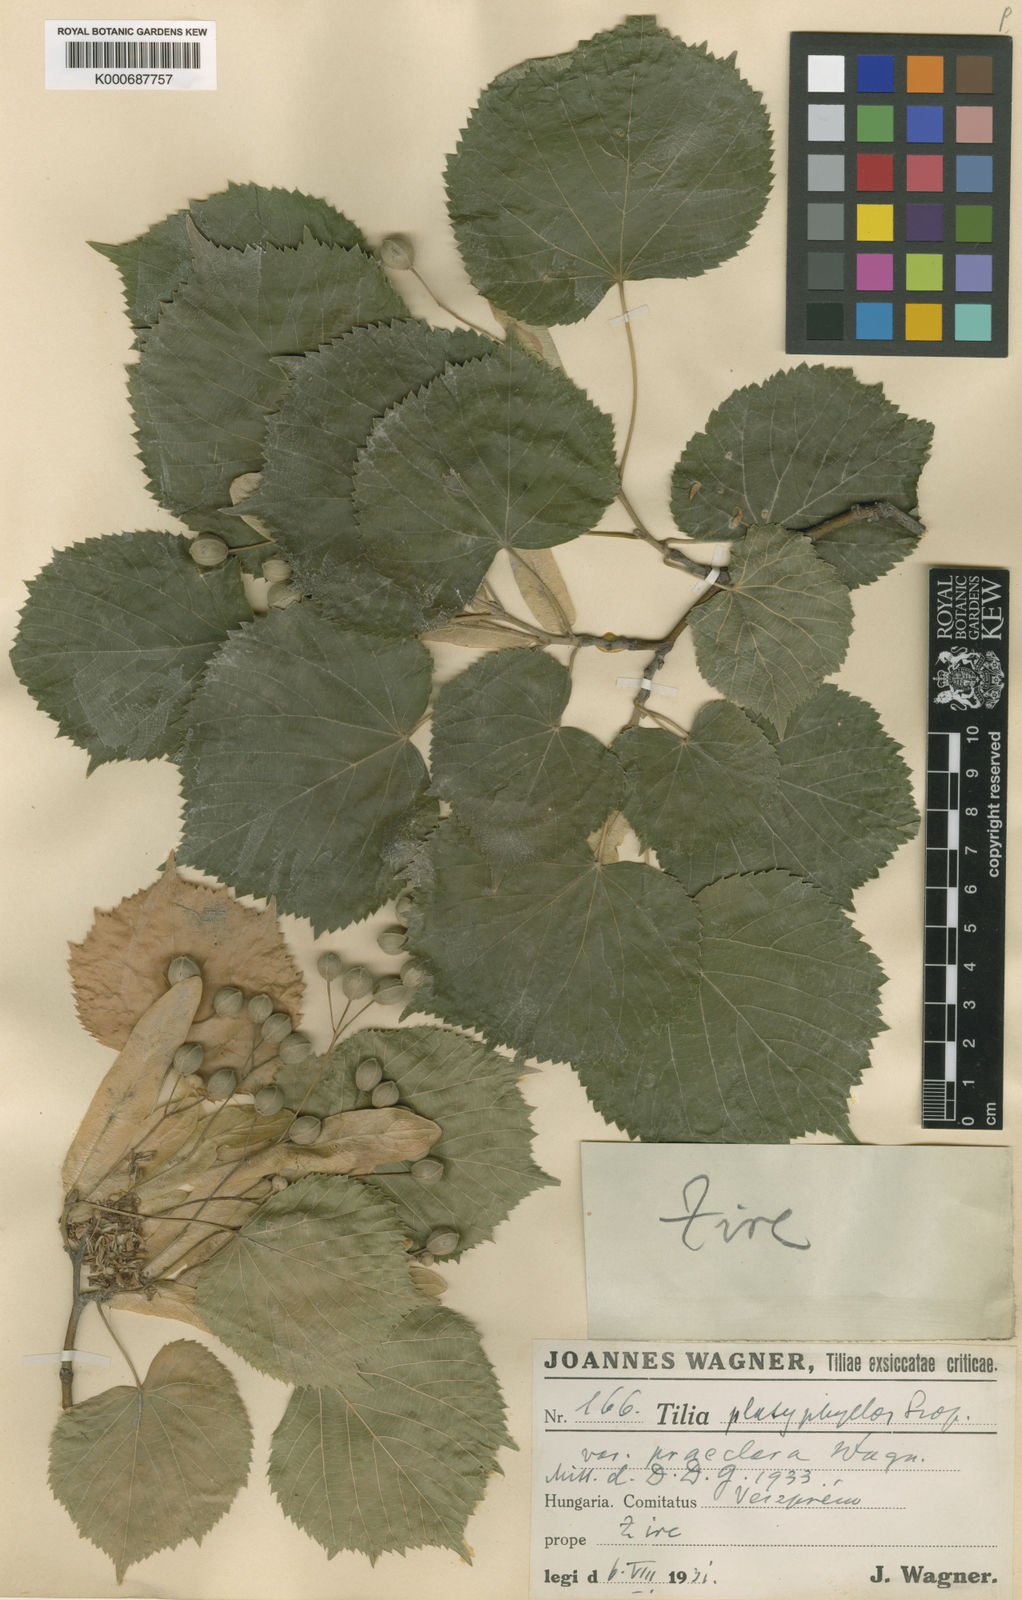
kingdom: Plantae
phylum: Tracheophyta
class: Magnoliopsida
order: Malvales
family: Malvaceae
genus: Tilia
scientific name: Tilia platyphyllos
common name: Large-leaved lime
